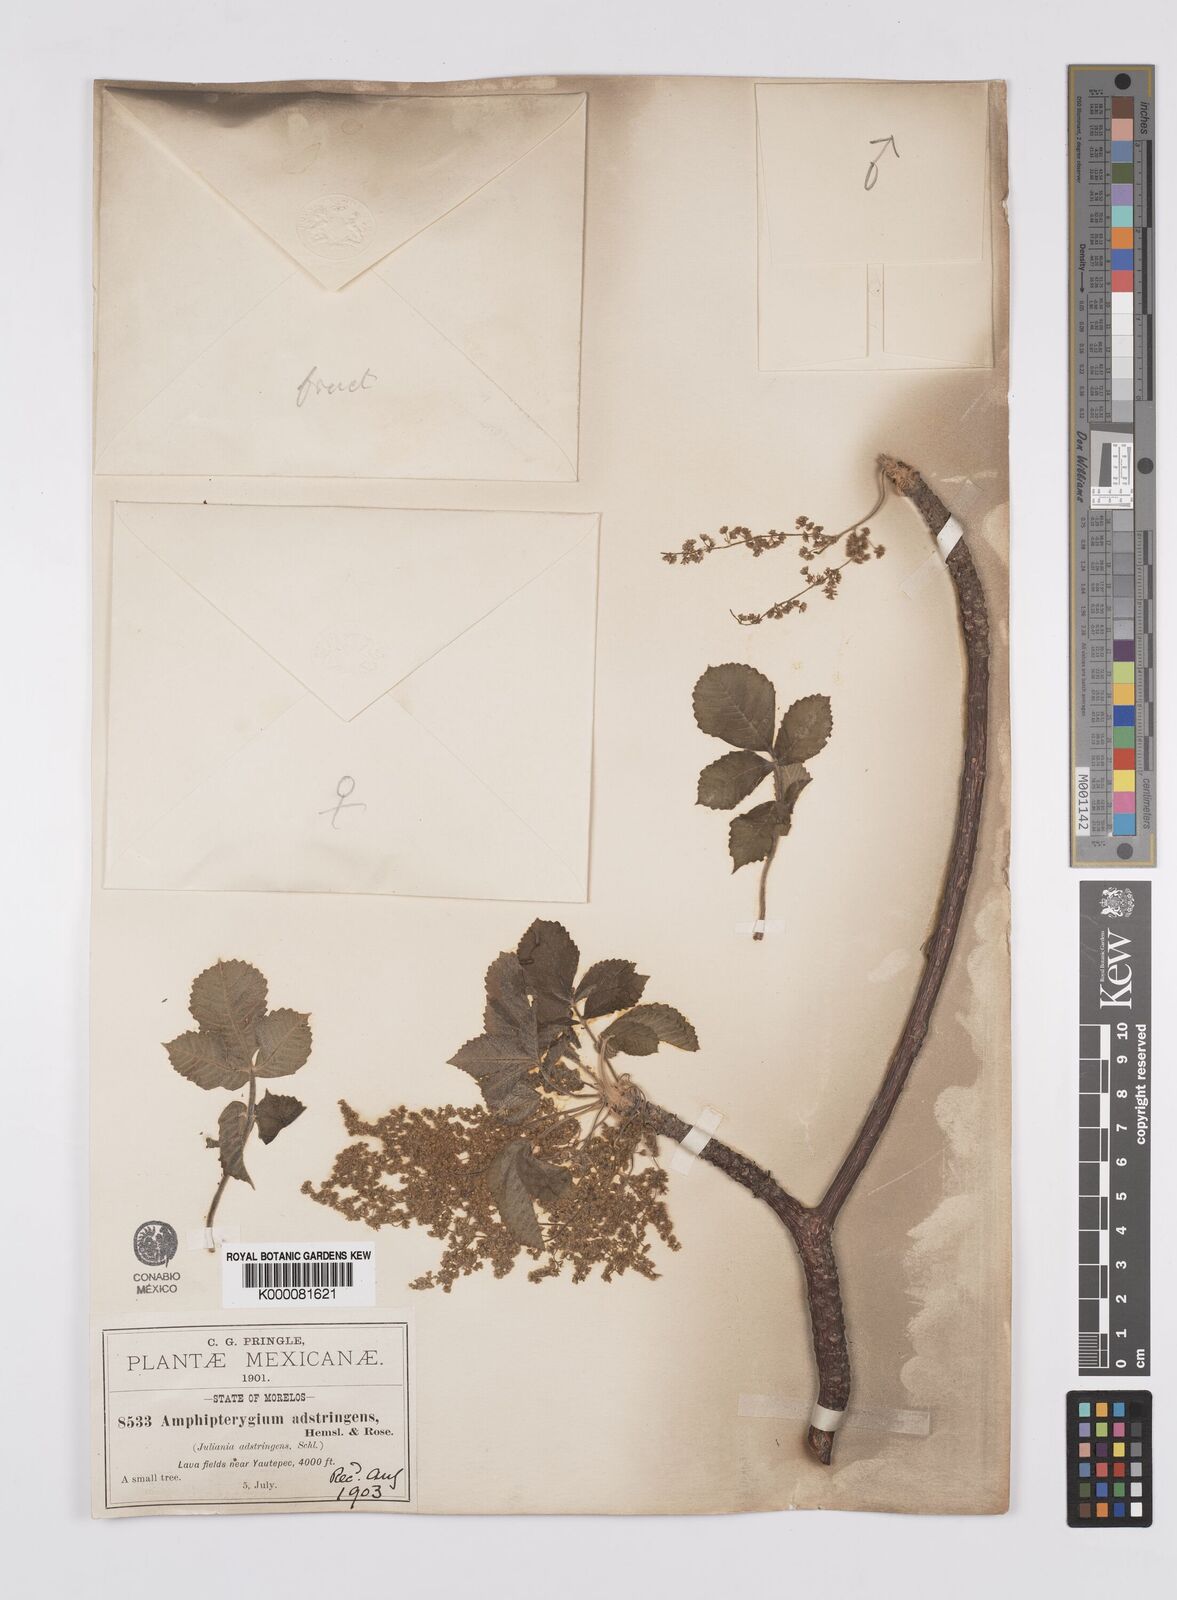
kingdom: Plantae
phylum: Tracheophyta
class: Magnoliopsida
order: Sapindales
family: Anacardiaceae
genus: Amphipterygium
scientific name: Amphipterygium adstringens
